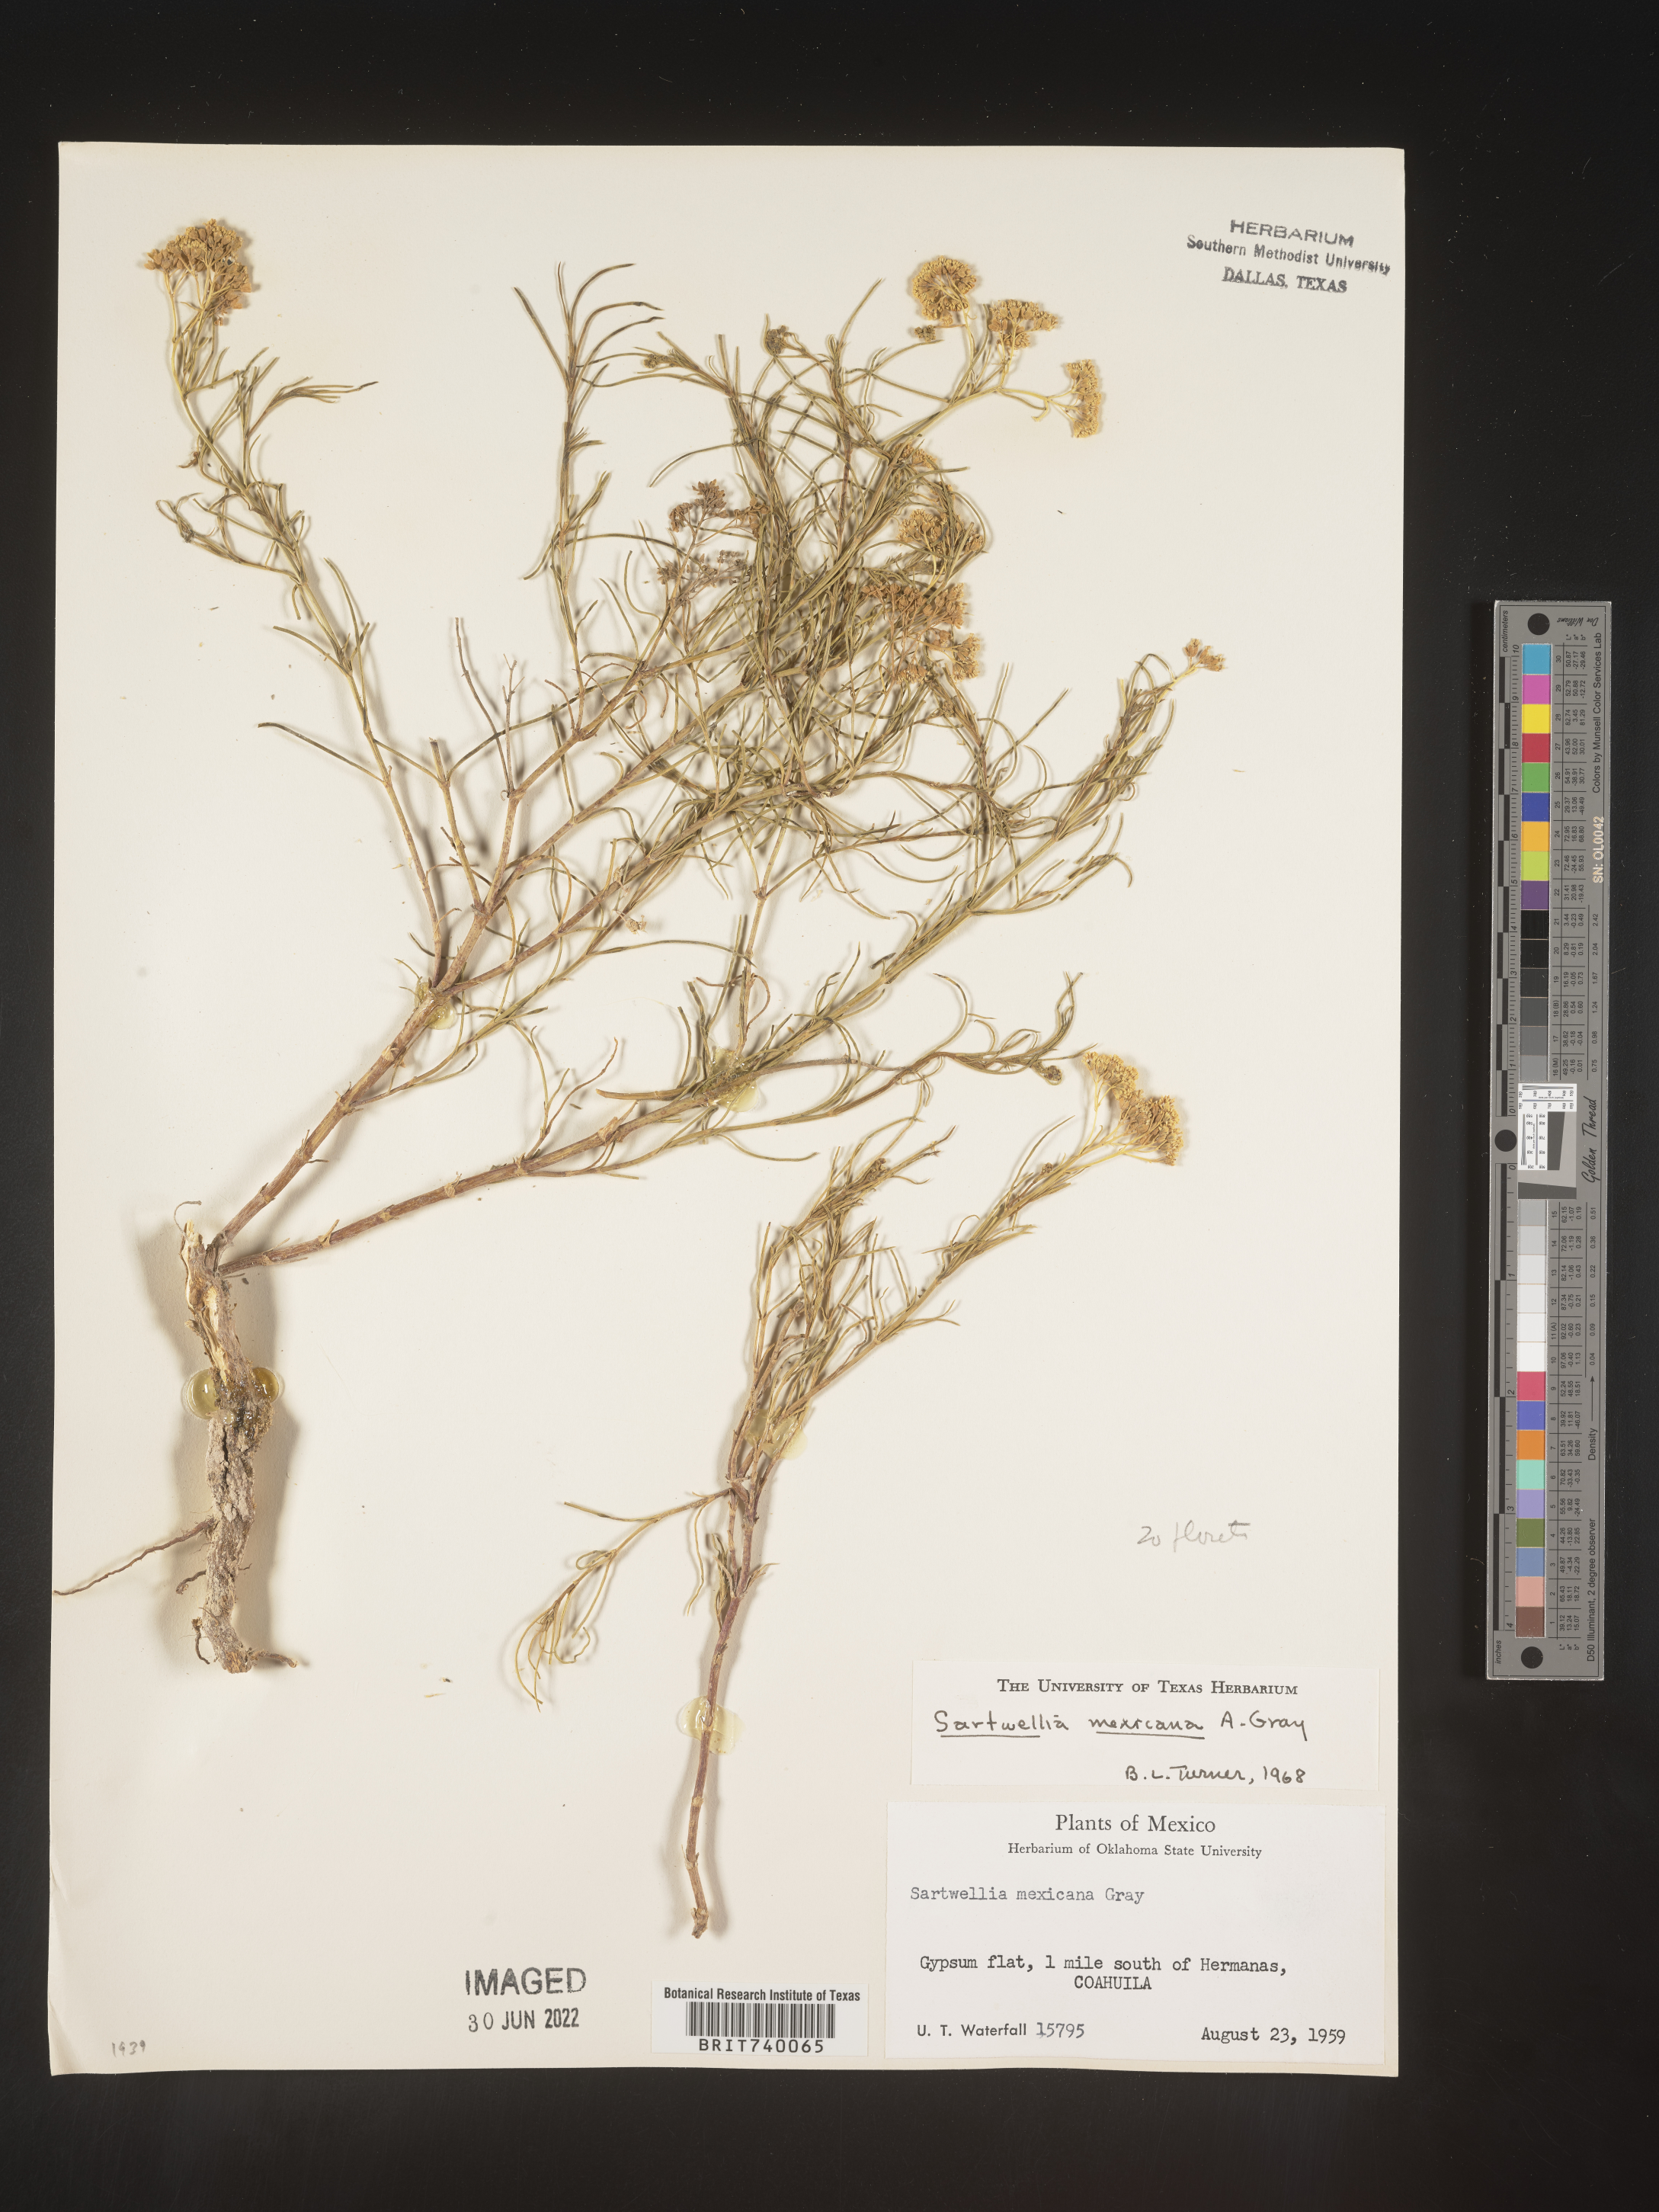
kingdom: Plantae
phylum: Tracheophyta
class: Magnoliopsida
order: Asterales
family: Asteraceae
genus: Sartwellia
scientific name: Sartwellia
